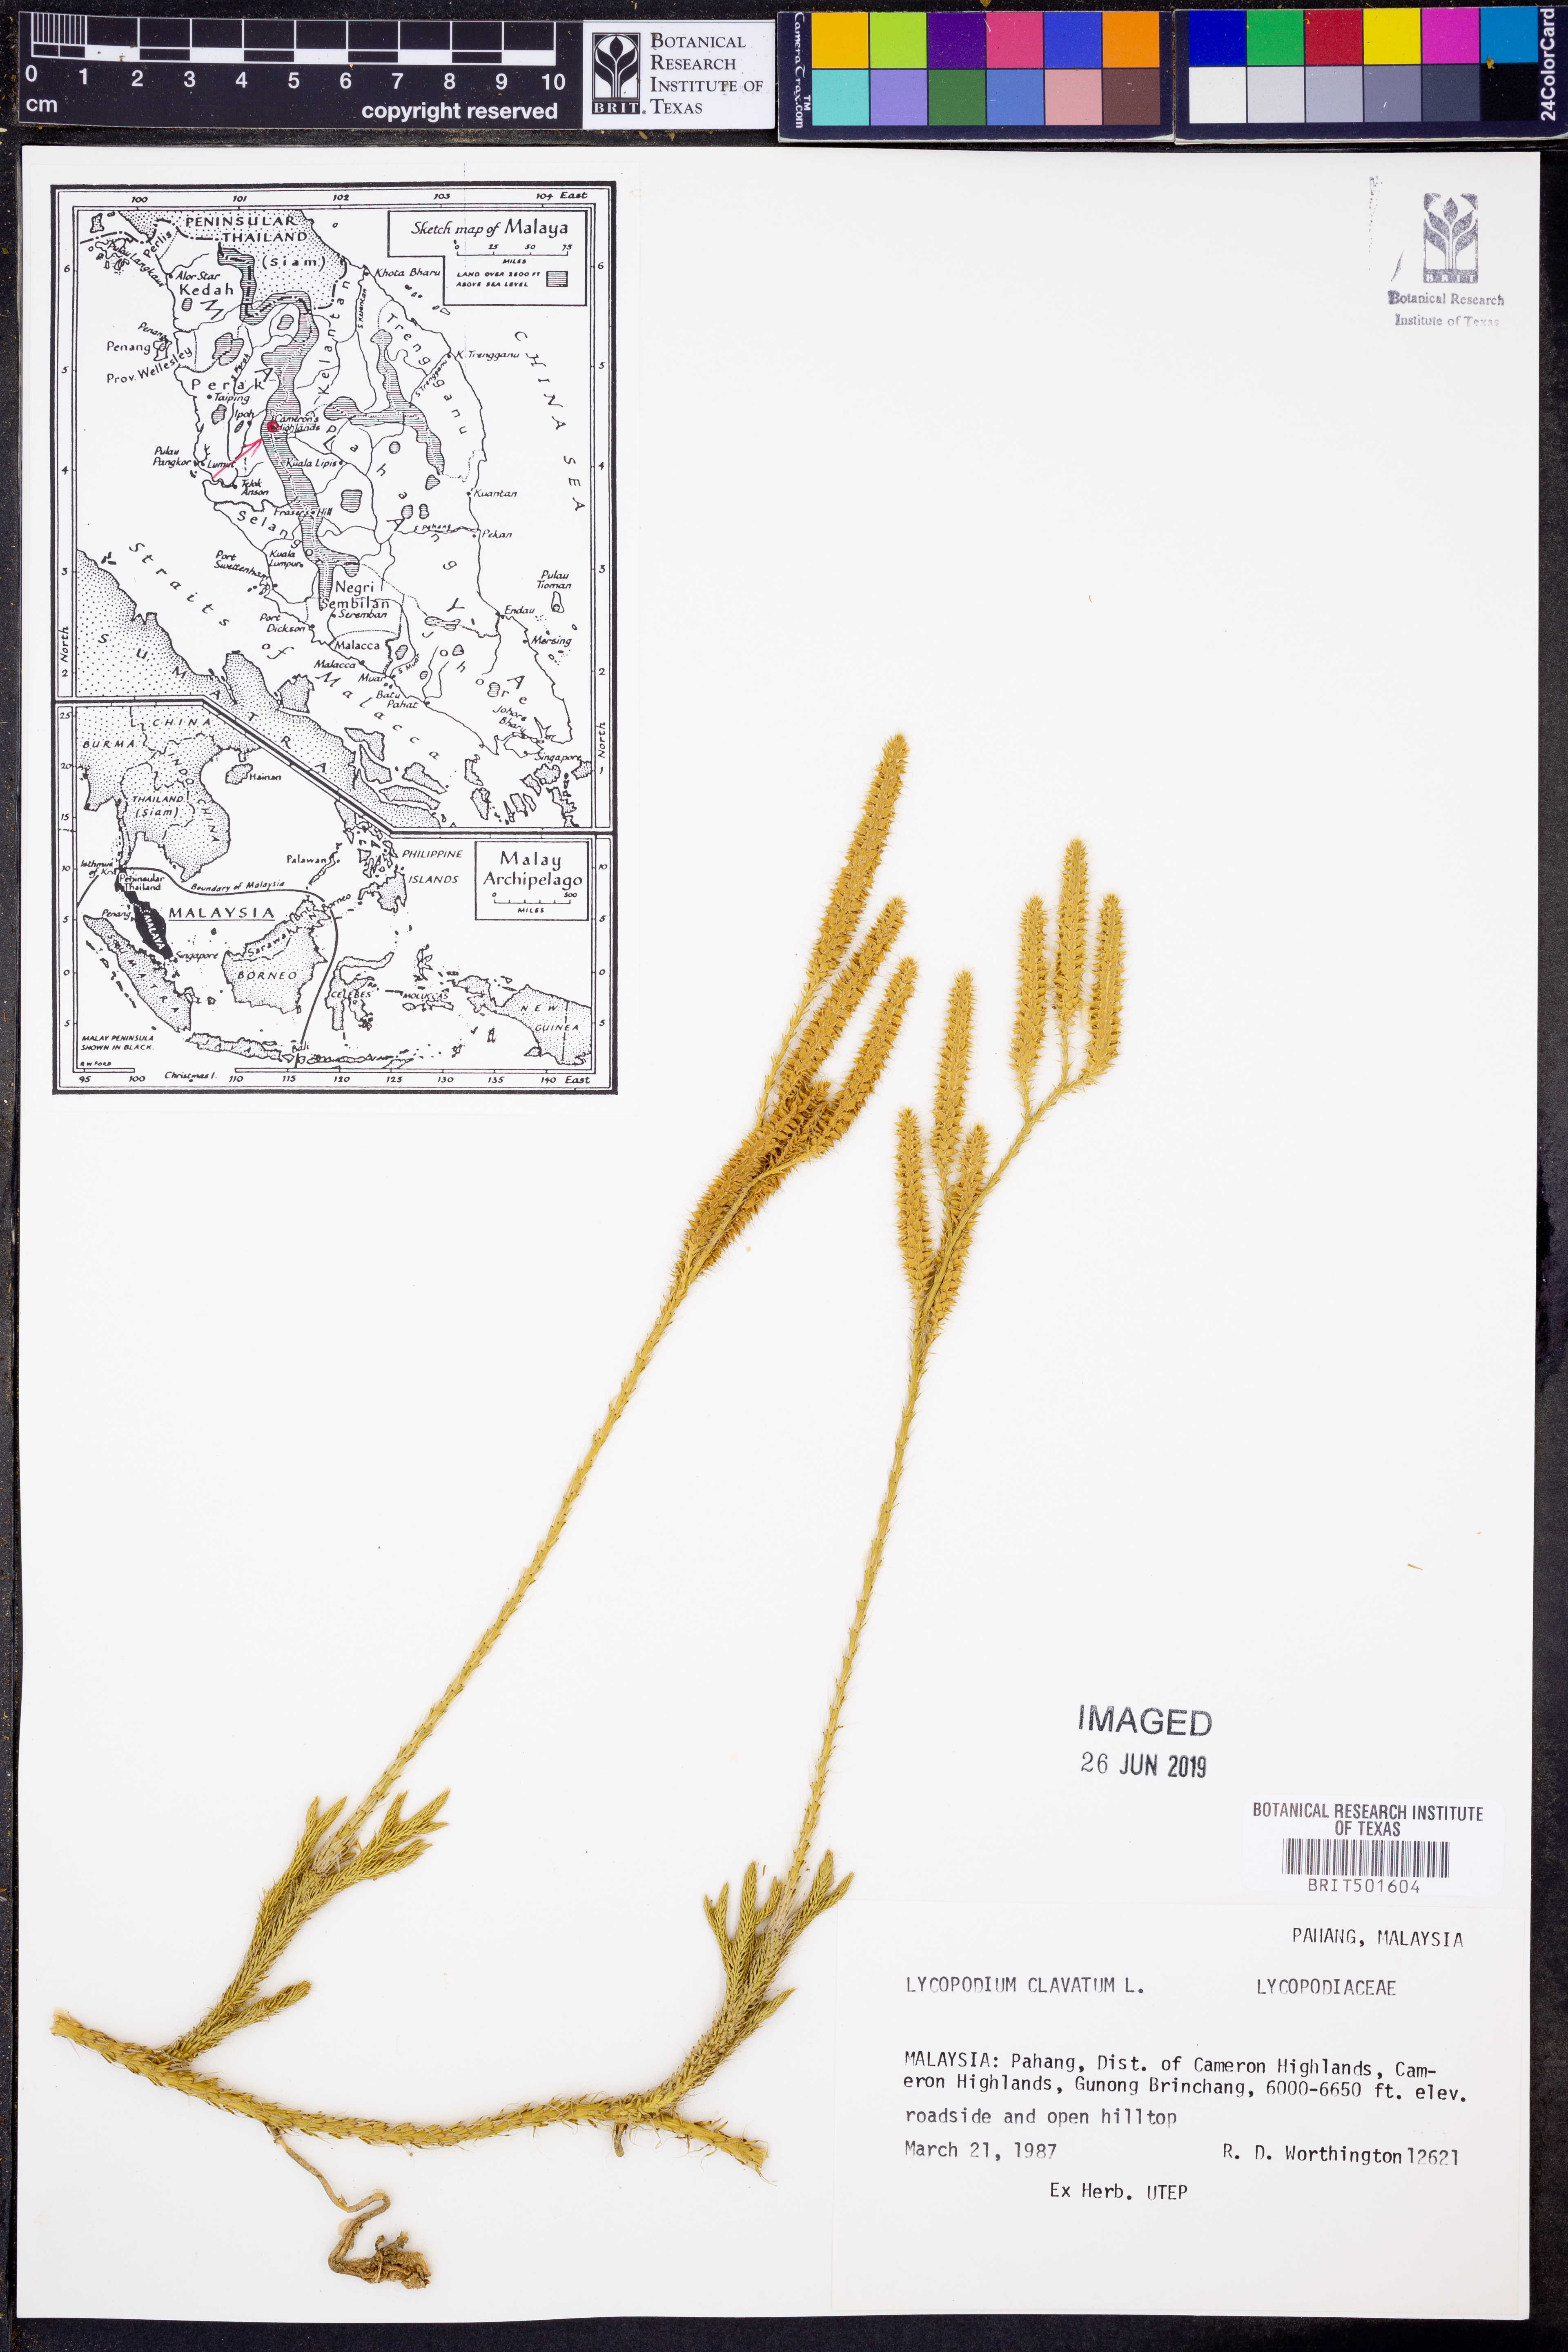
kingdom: Plantae
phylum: Tracheophyta
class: Lycopodiopsida
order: Lycopodiales
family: Lycopodiaceae
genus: Lycopodium
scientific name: Lycopodium clavatum
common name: Stag's-horn clubmoss
